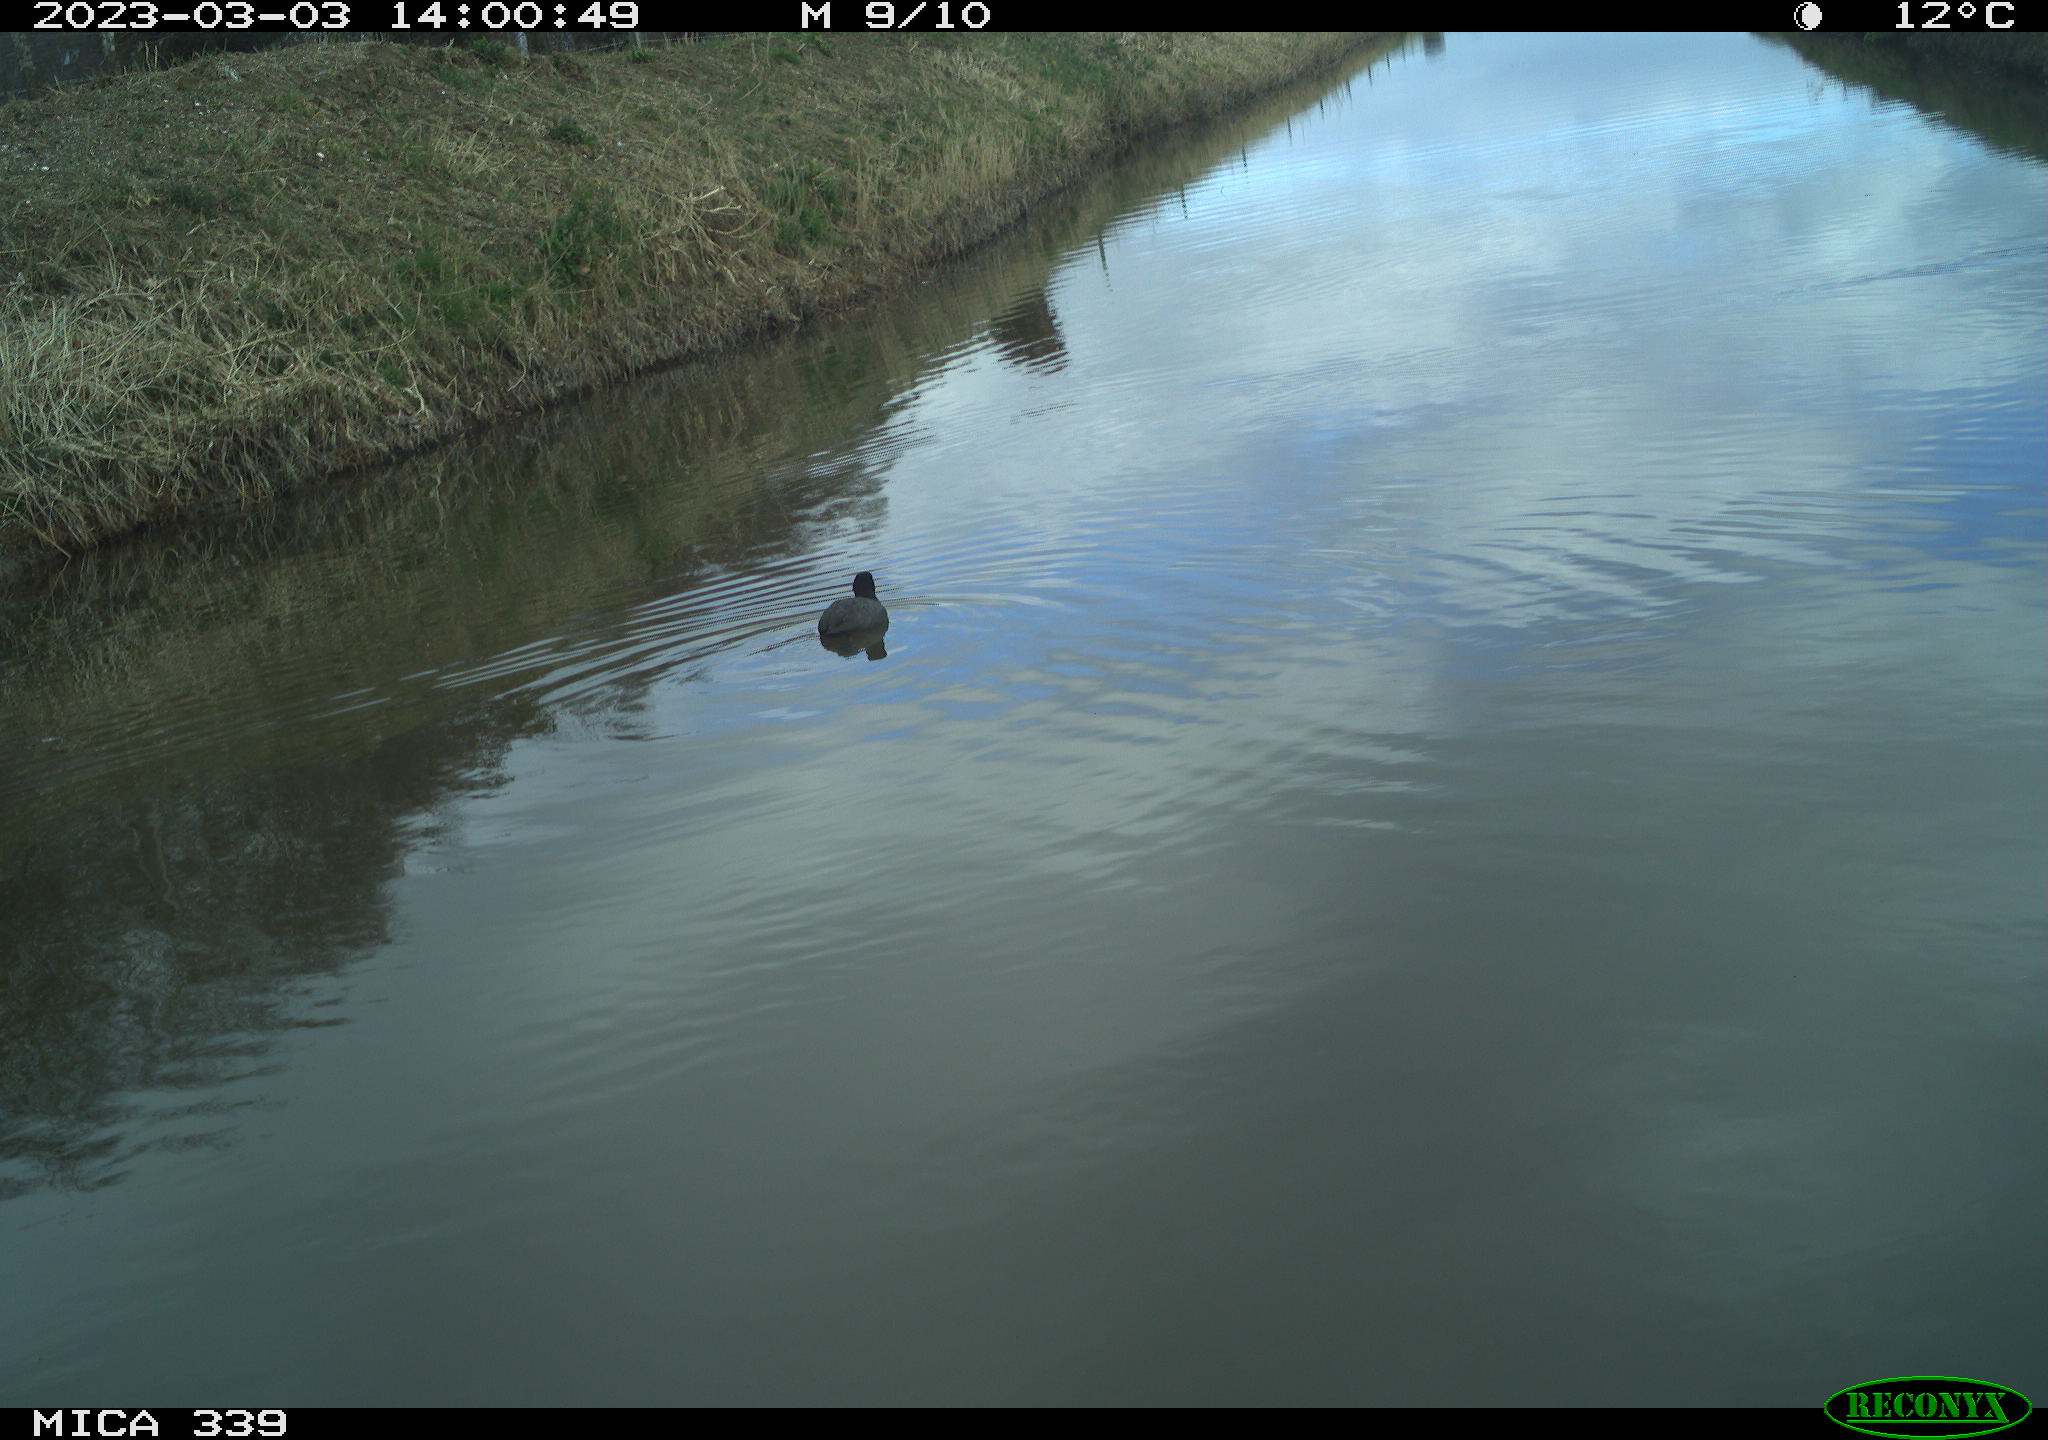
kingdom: Animalia
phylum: Chordata
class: Aves
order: Gruiformes
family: Rallidae
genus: Gallinula
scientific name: Gallinula chloropus
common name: Common moorhen
